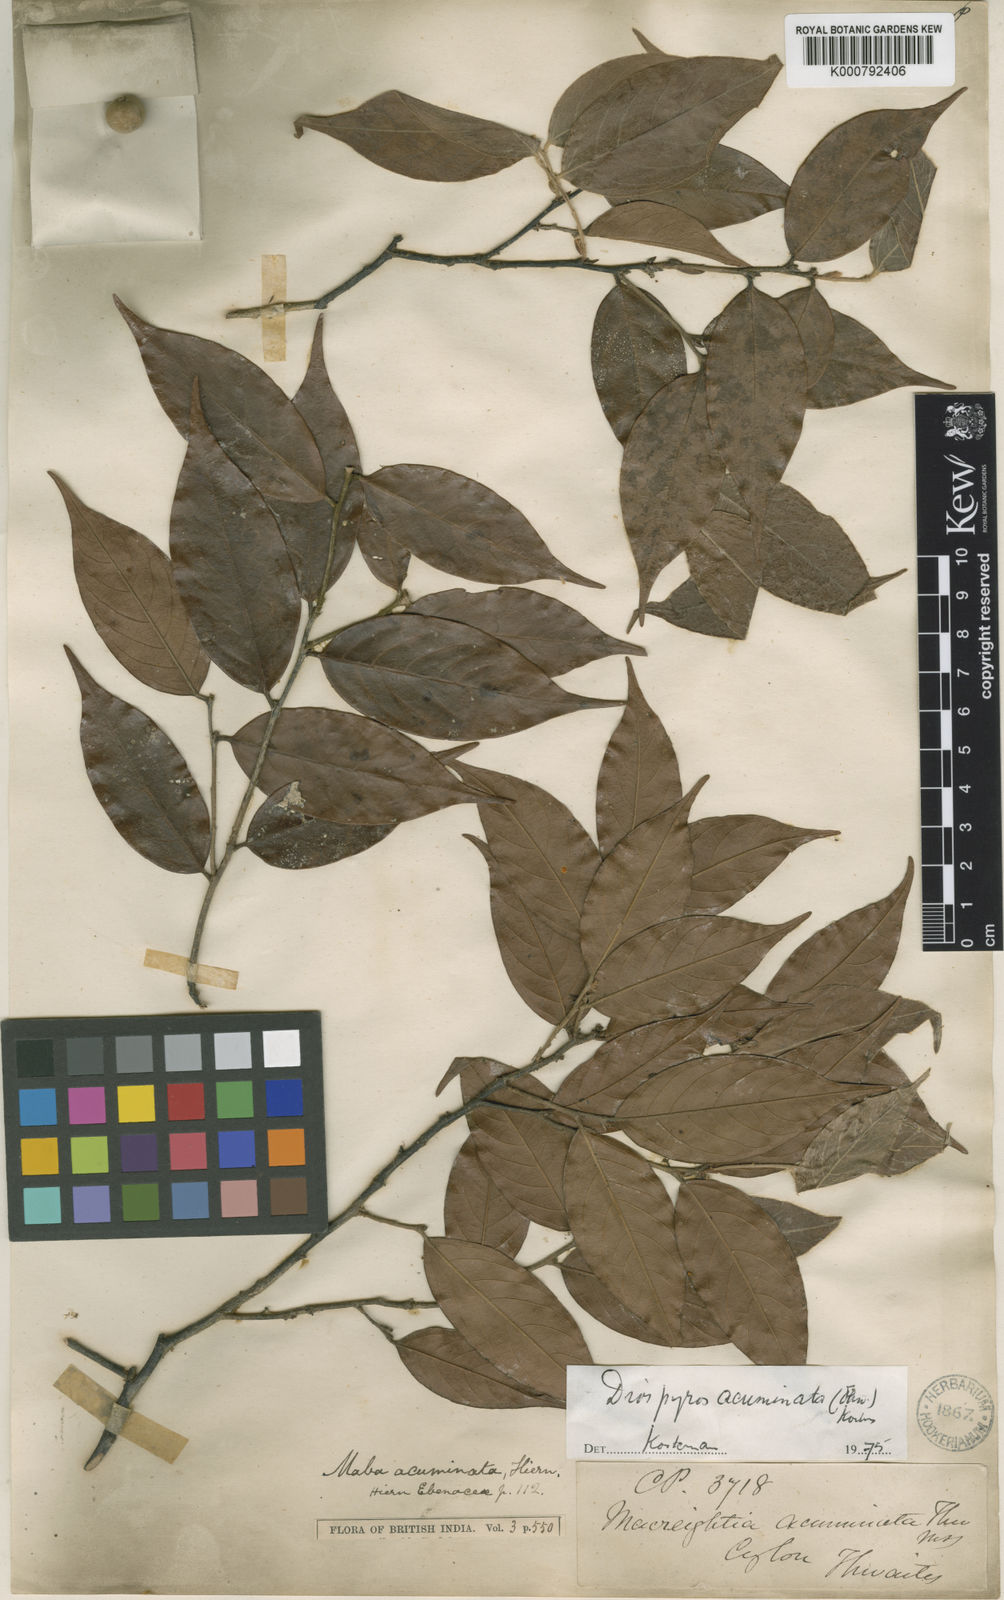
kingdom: Plantae
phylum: Tracheophyta
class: Magnoliopsida
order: Ericales
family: Ebenaceae
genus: Diospyros
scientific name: Diospyros acuminata
